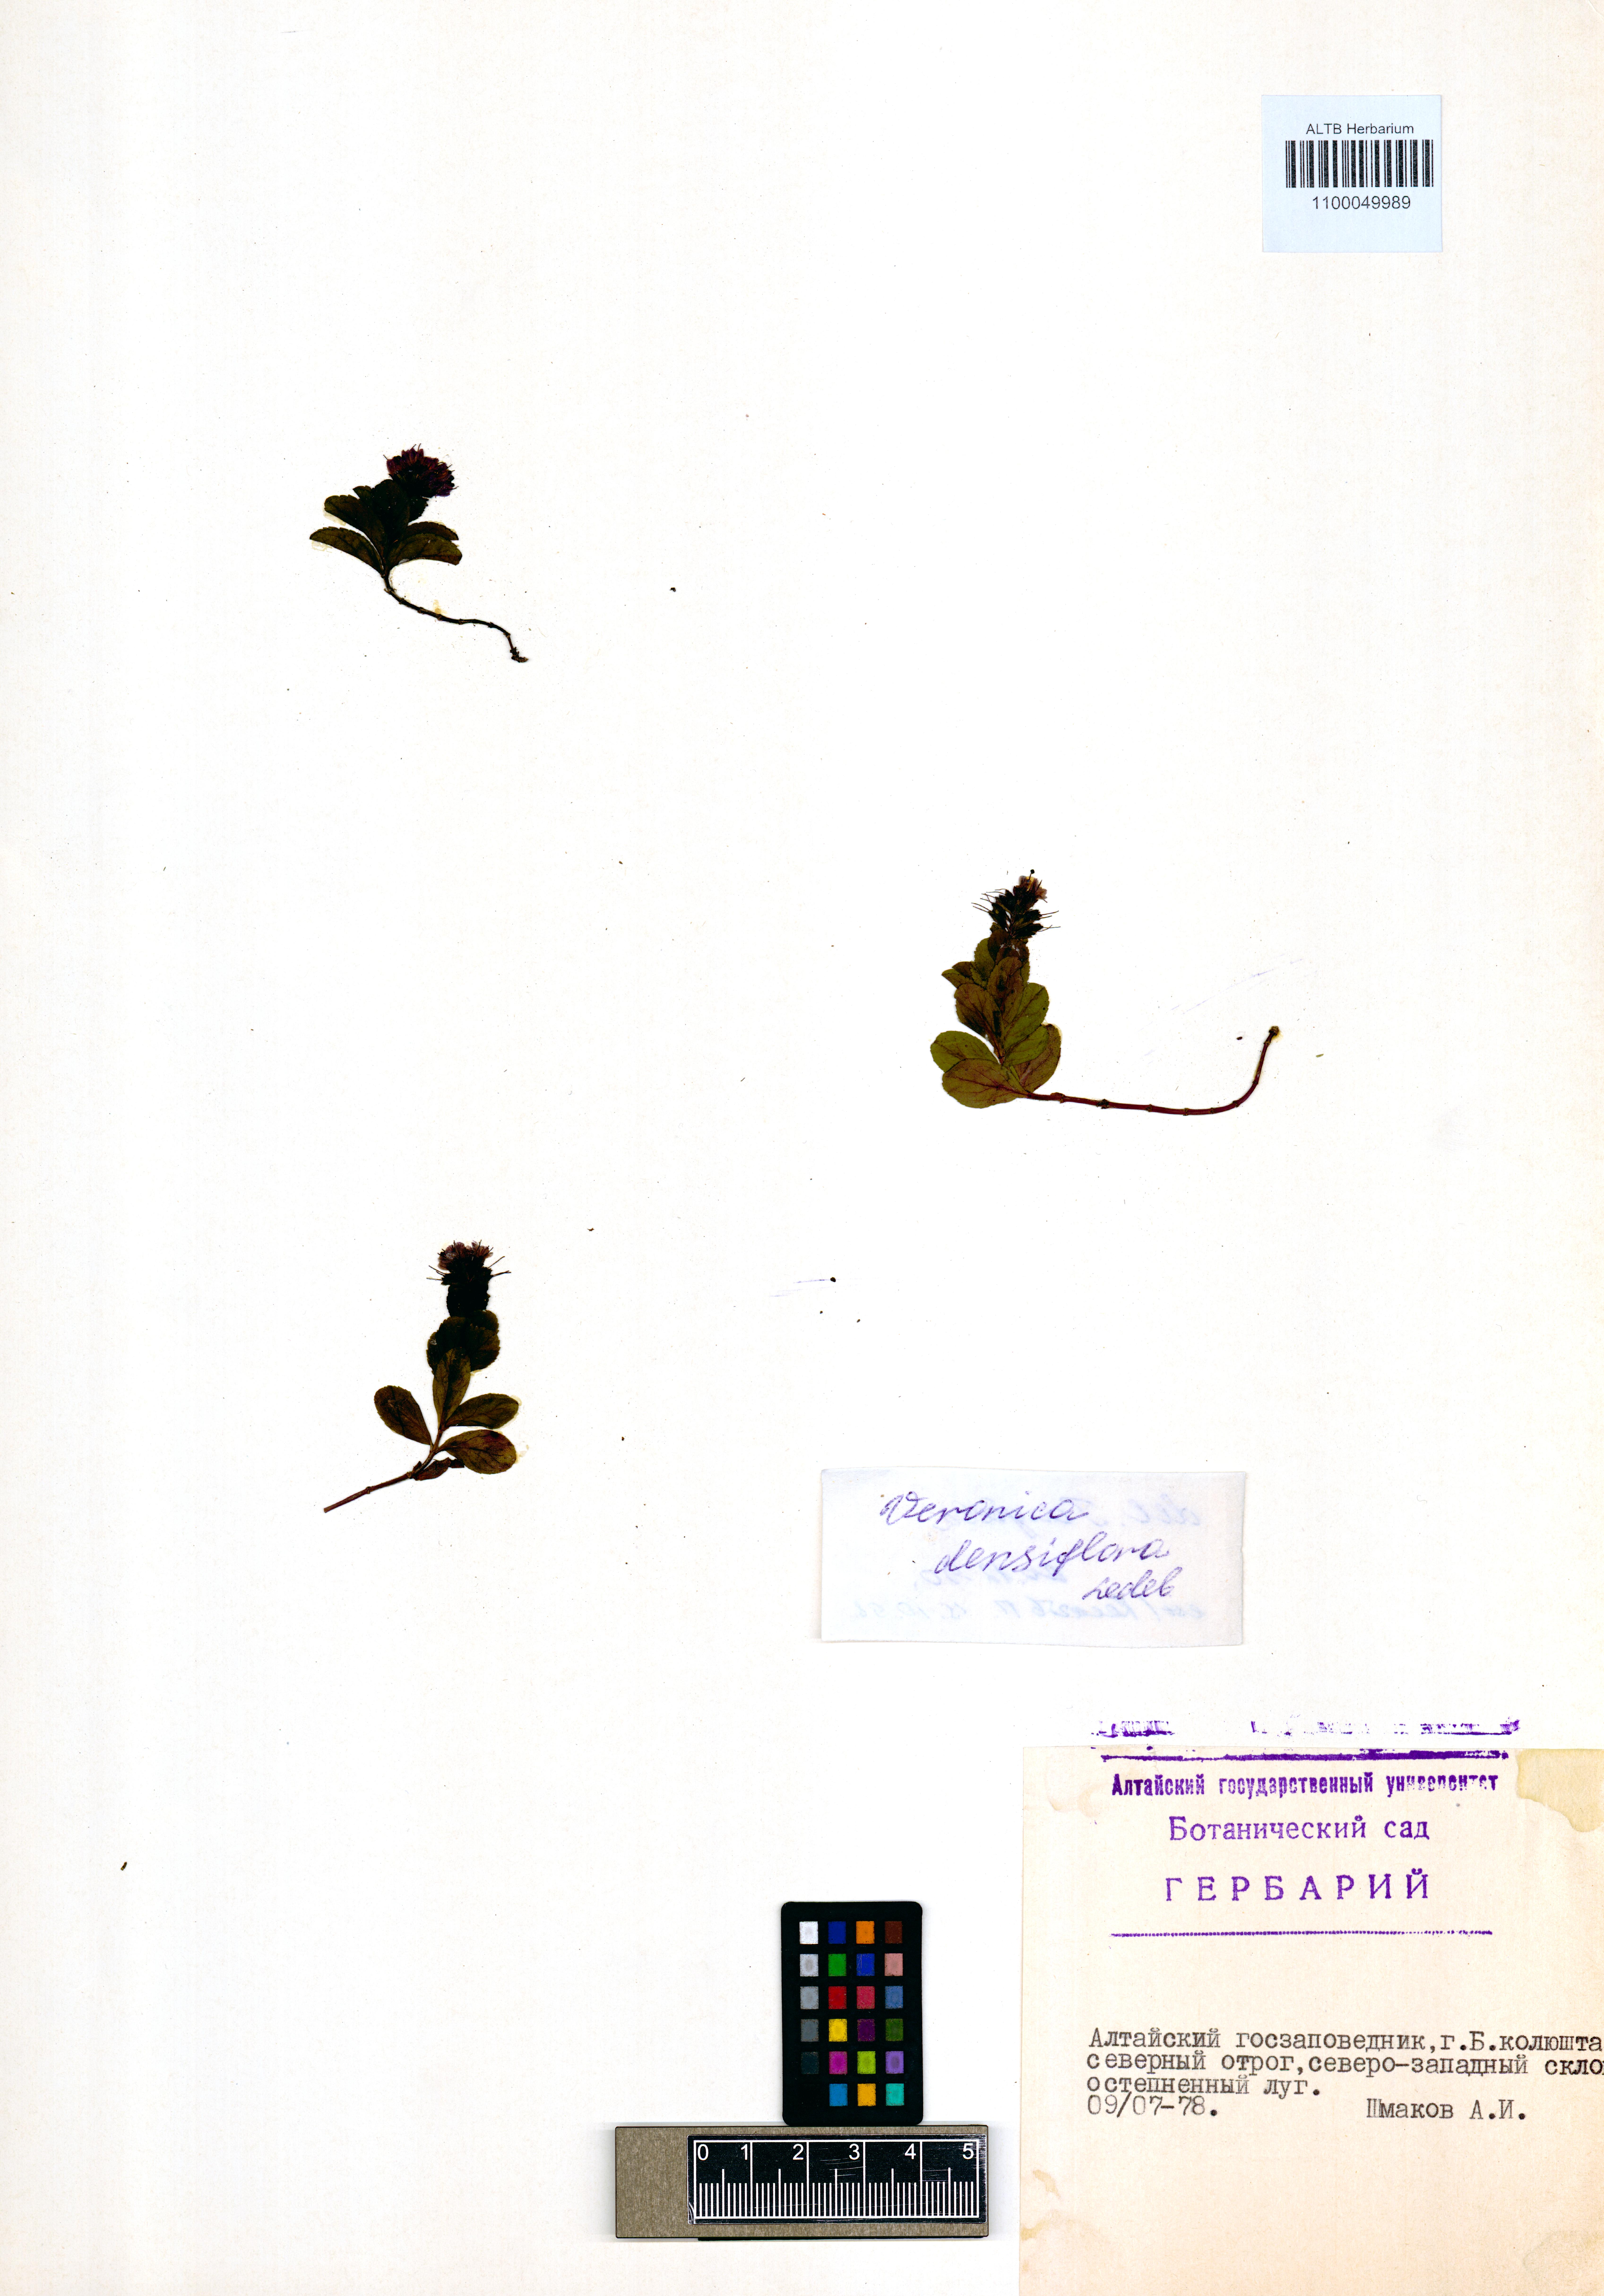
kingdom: Plantae
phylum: Tracheophyta
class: Magnoliopsida
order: Lamiales
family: Plantaginaceae
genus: Veronica
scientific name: Veronica densiflora
